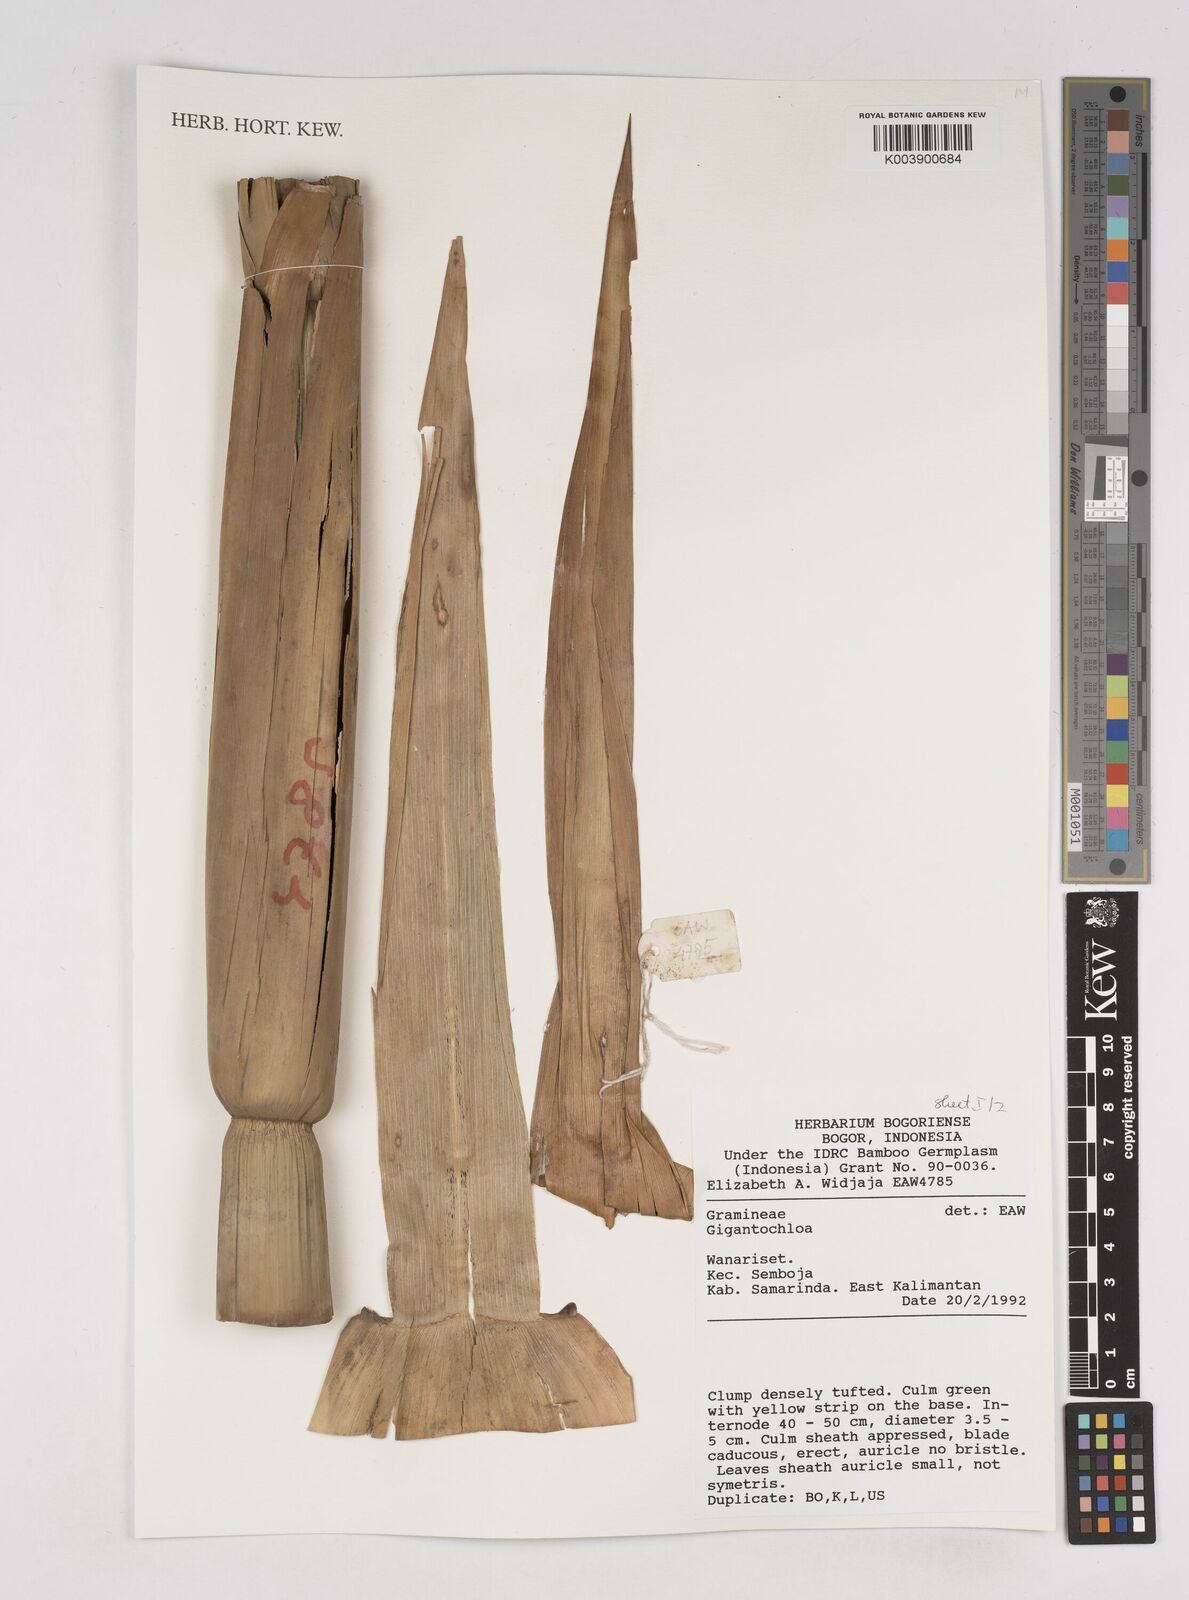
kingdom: Plantae
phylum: Tracheophyta
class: Liliopsida
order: Poales
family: Poaceae
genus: Gigantochloa
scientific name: Gigantochloa
